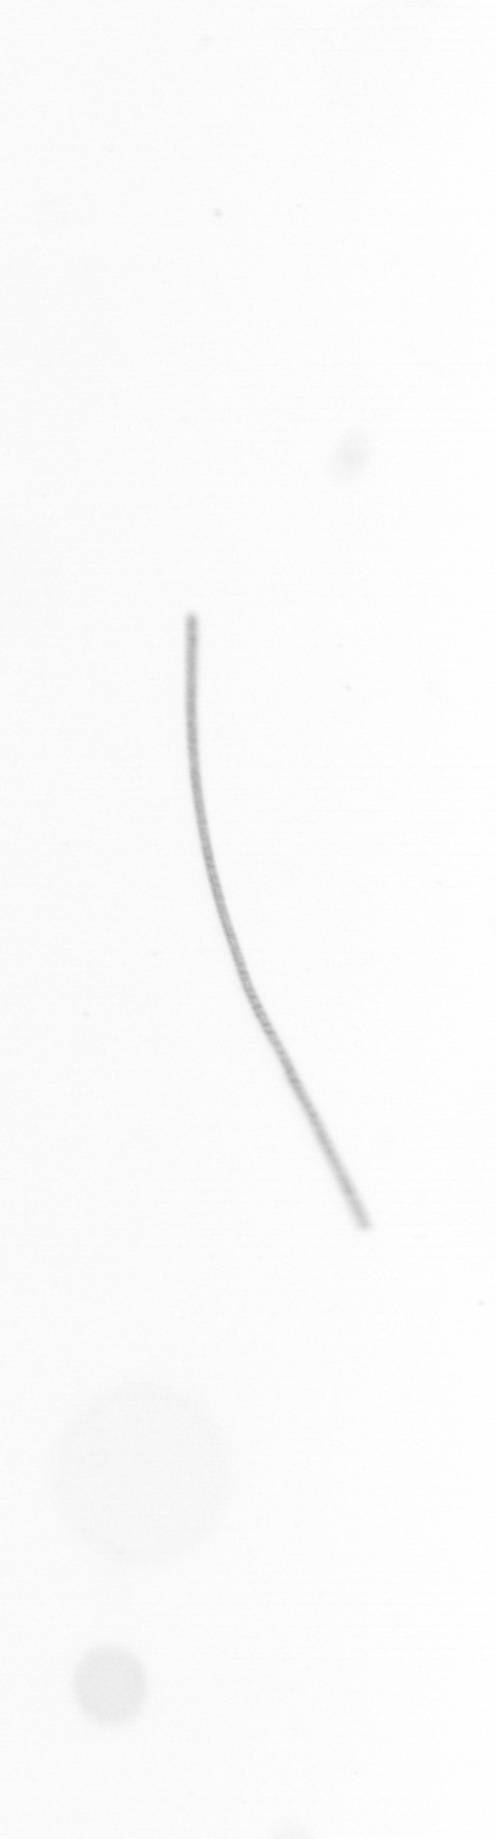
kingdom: Chromista
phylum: Ochrophyta
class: Bacillariophyceae
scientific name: Bacillariophyceae
